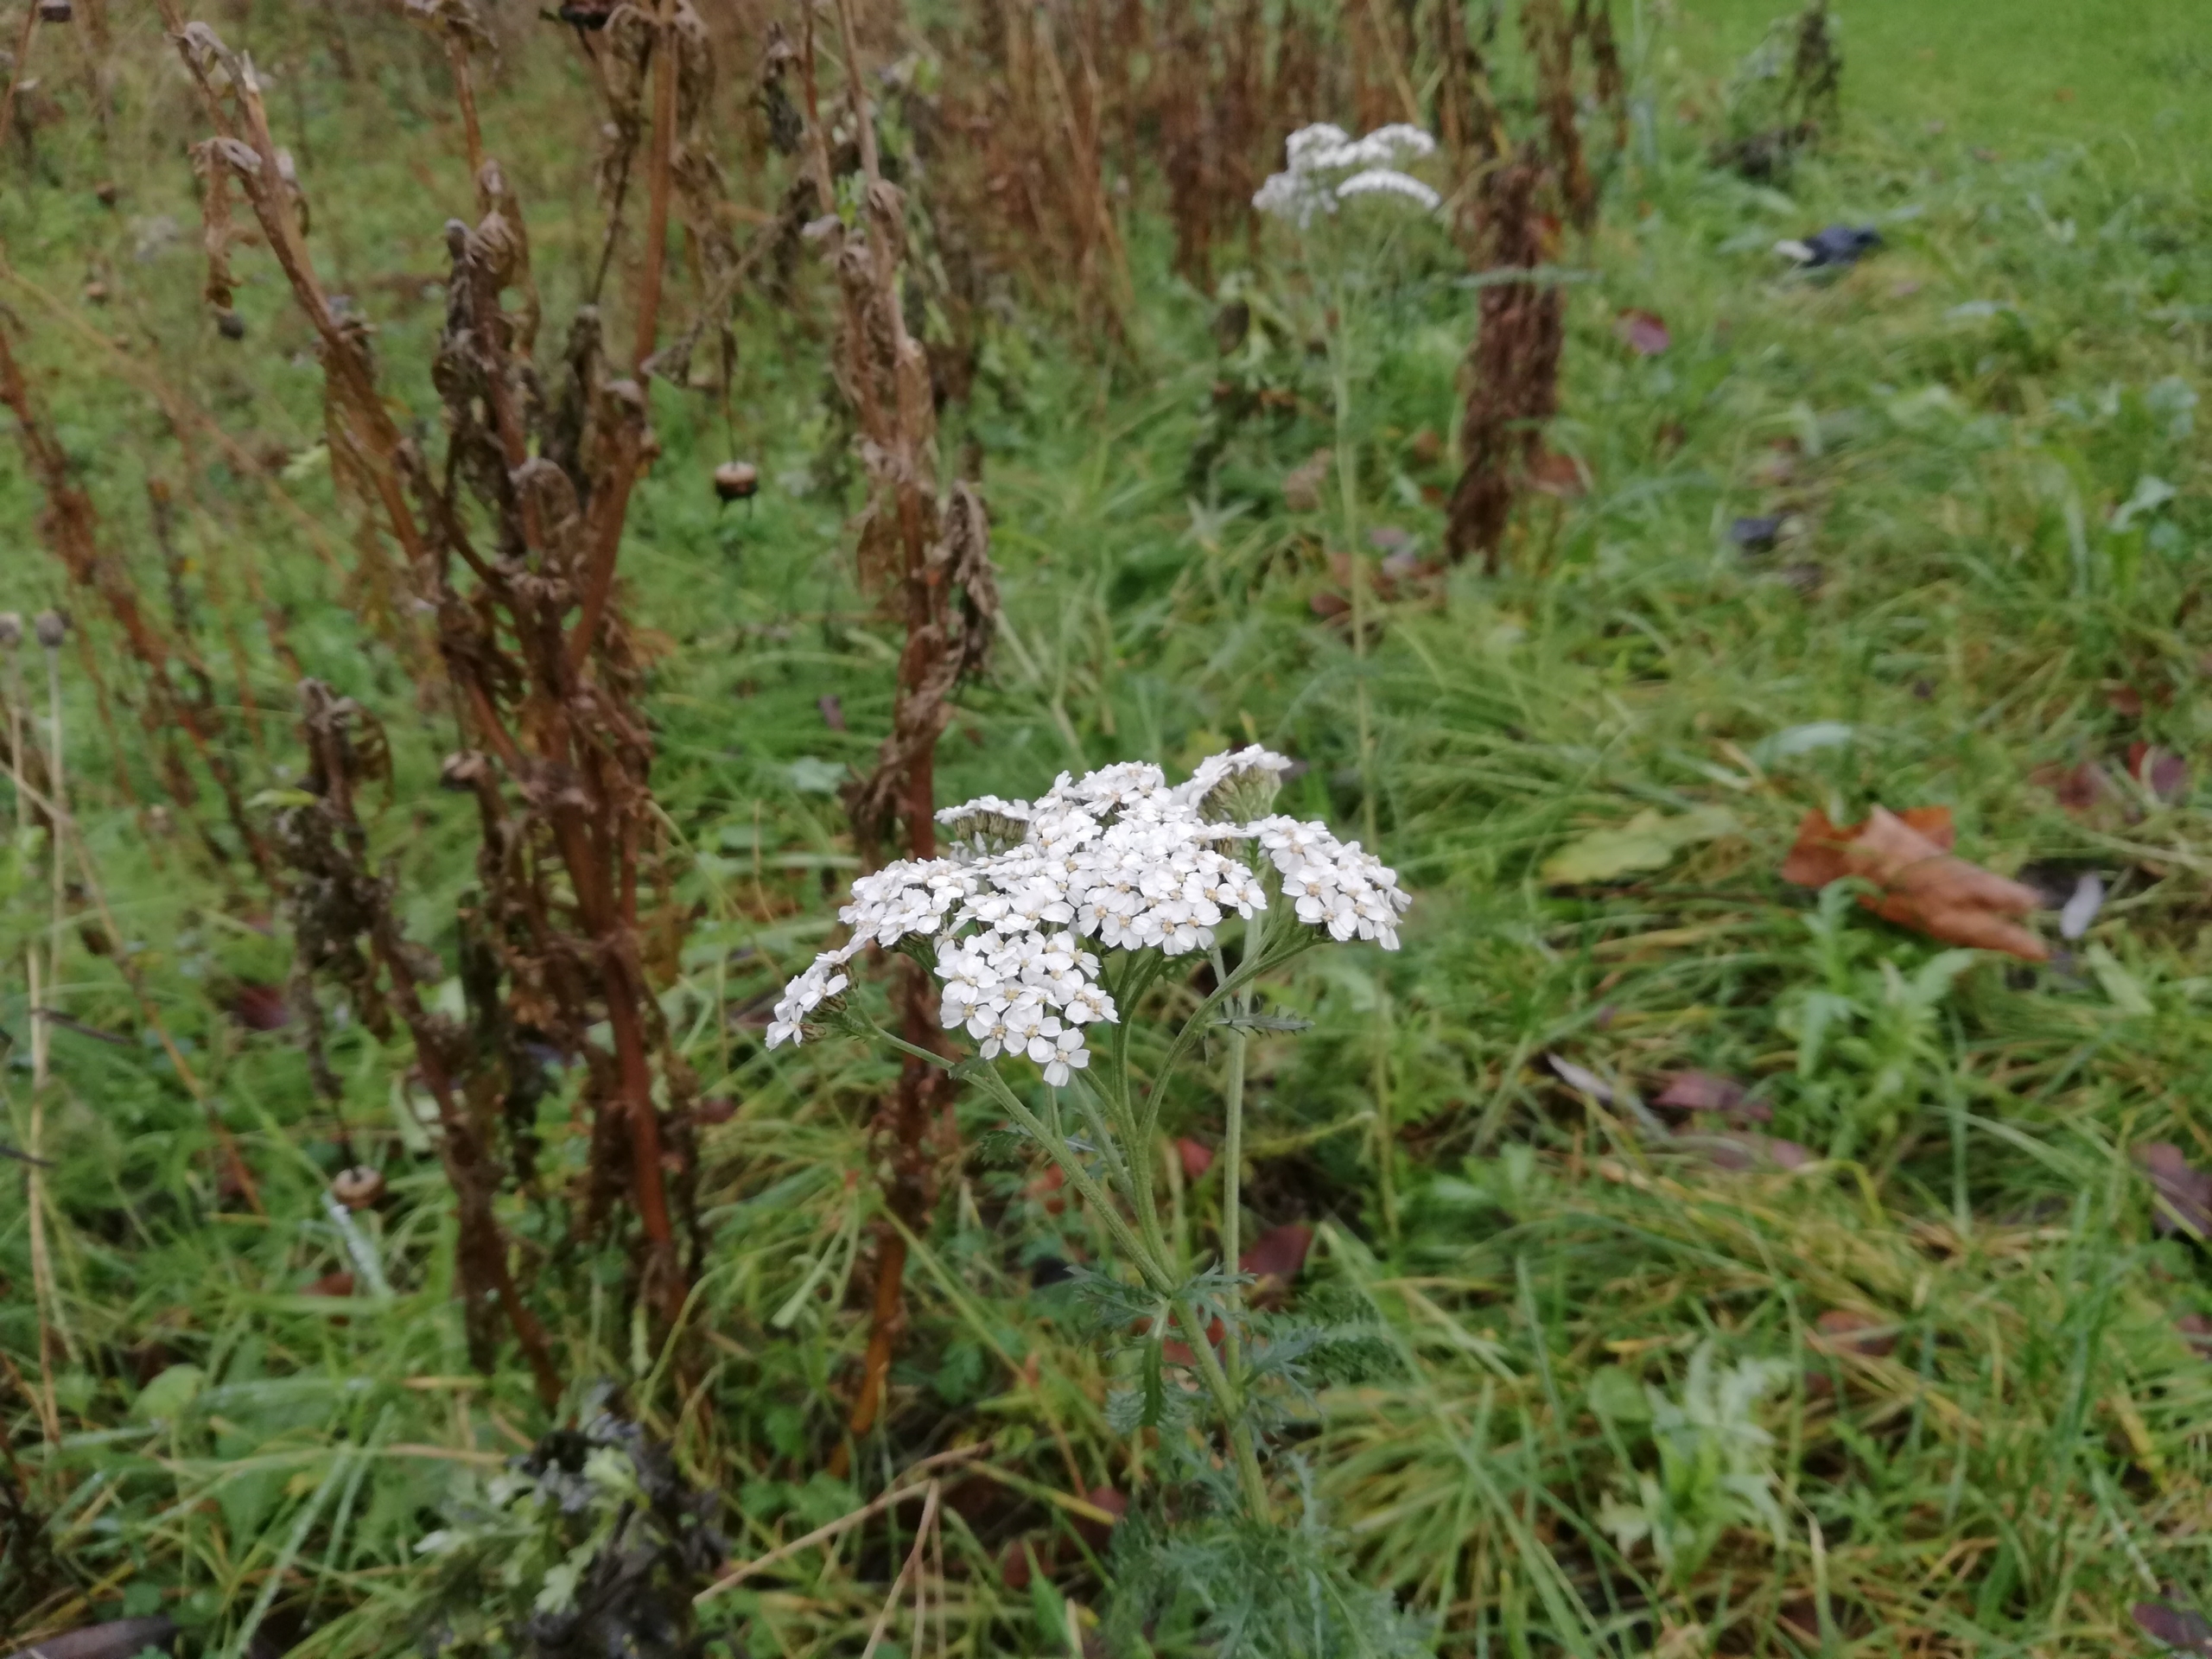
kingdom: Plantae
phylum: Tracheophyta
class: Magnoliopsida
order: Asterales
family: Asteraceae
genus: Achillea
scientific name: Achillea millefolium
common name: Almindelig røllike
